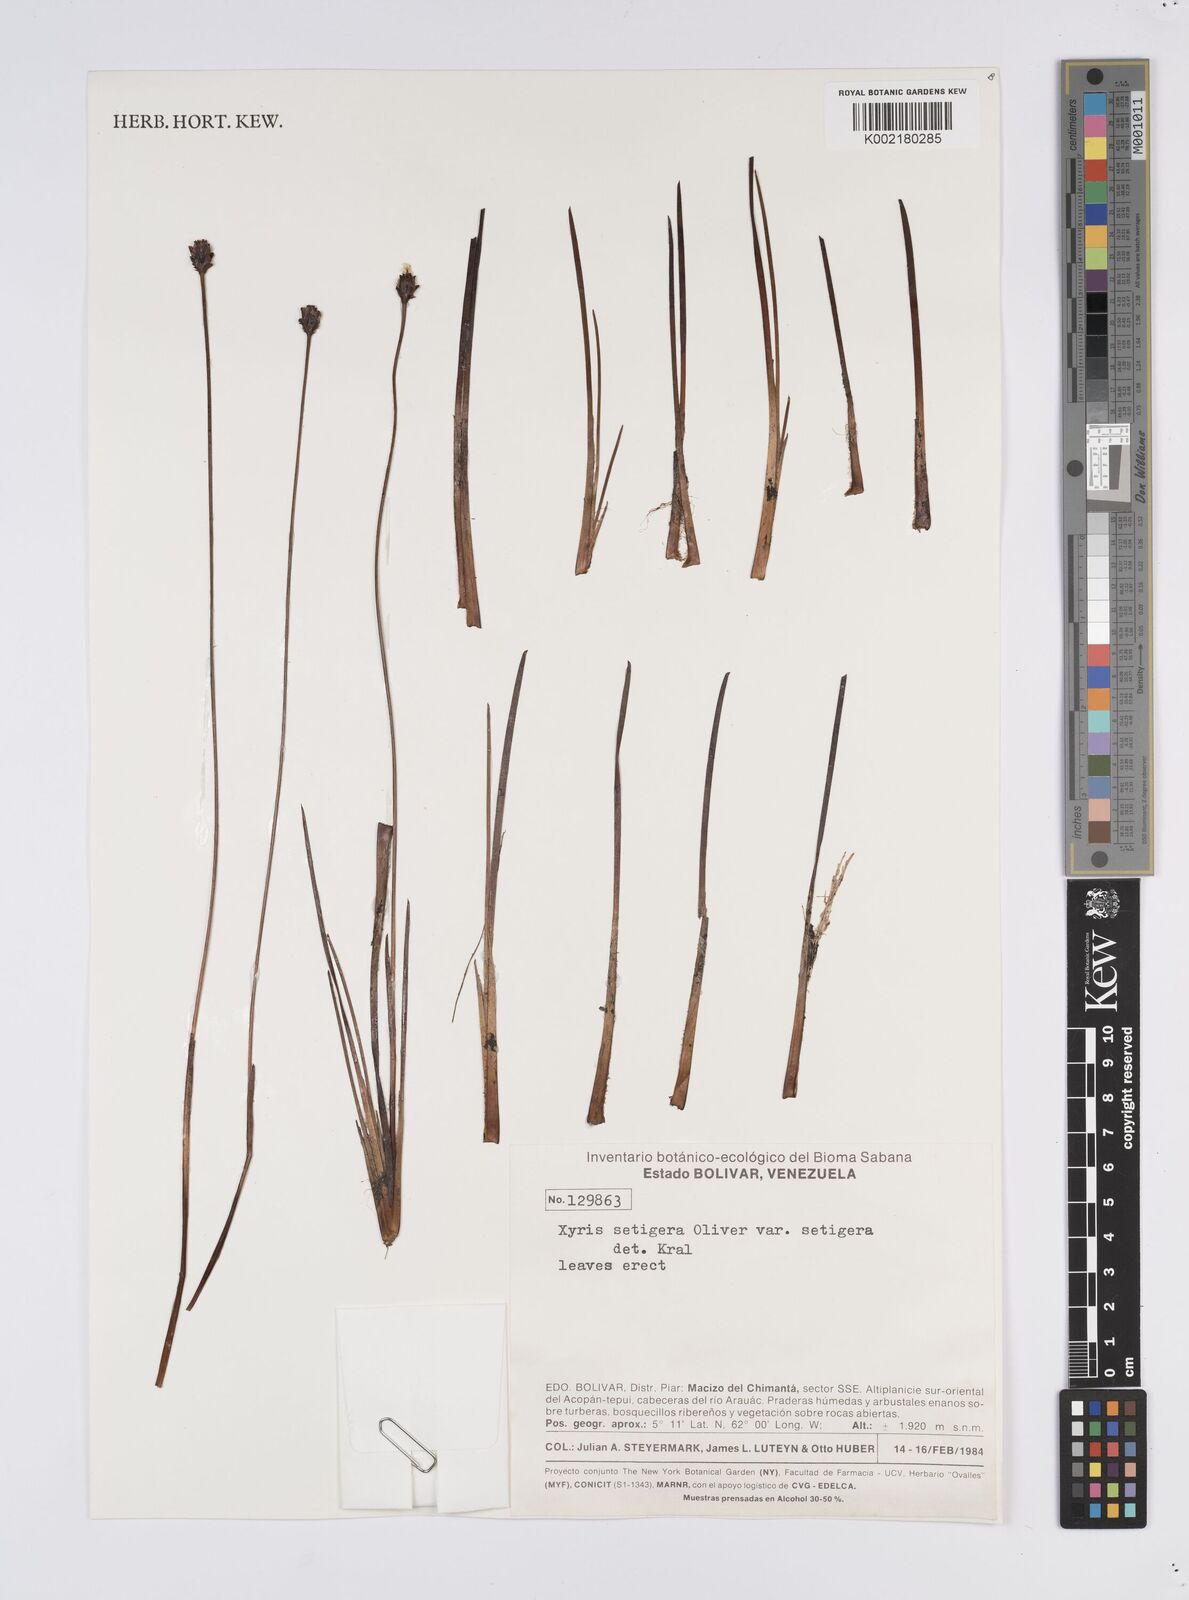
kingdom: Plantae
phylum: Tracheophyta
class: Liliopsida
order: Poales
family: Xyridaceae
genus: Xyris
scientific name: Xyris setigera
